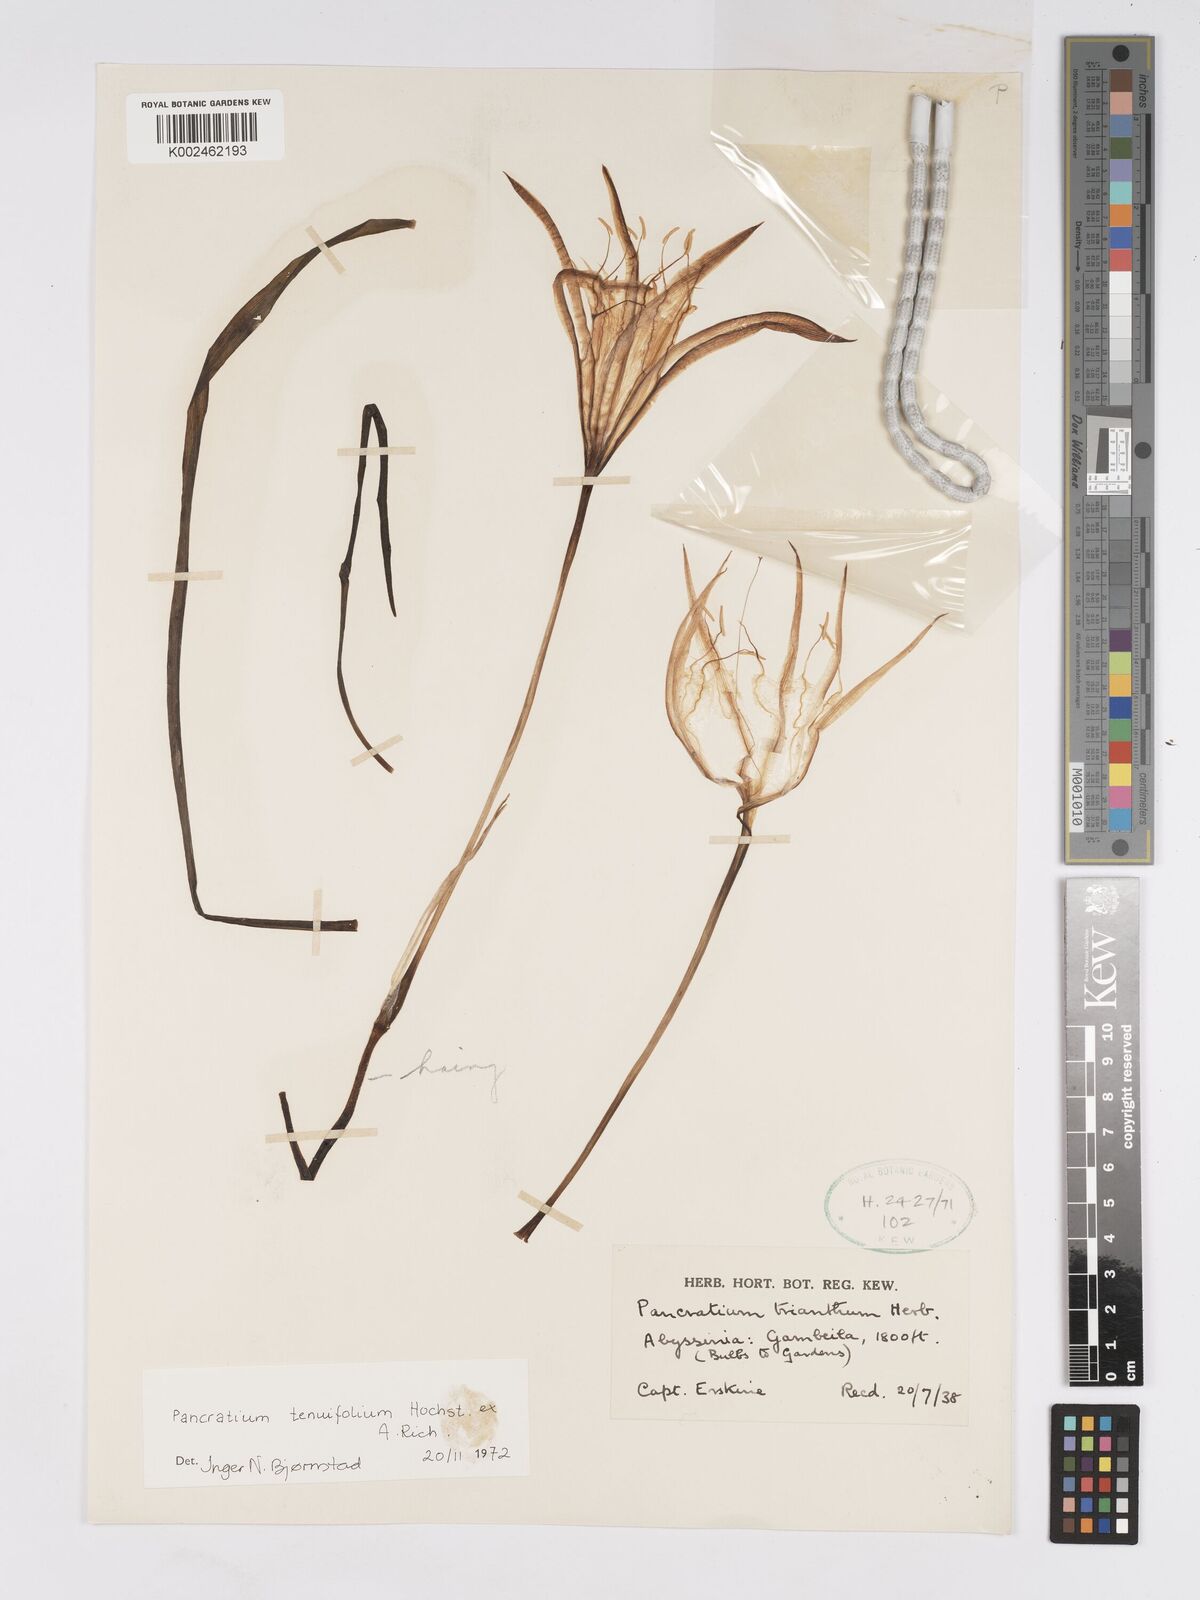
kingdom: Plantae
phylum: Tracheophyta
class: Liliopsida
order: Asparagales
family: Amaryllidaceae
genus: Pancratium
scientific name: Pancratium tenuifolium
